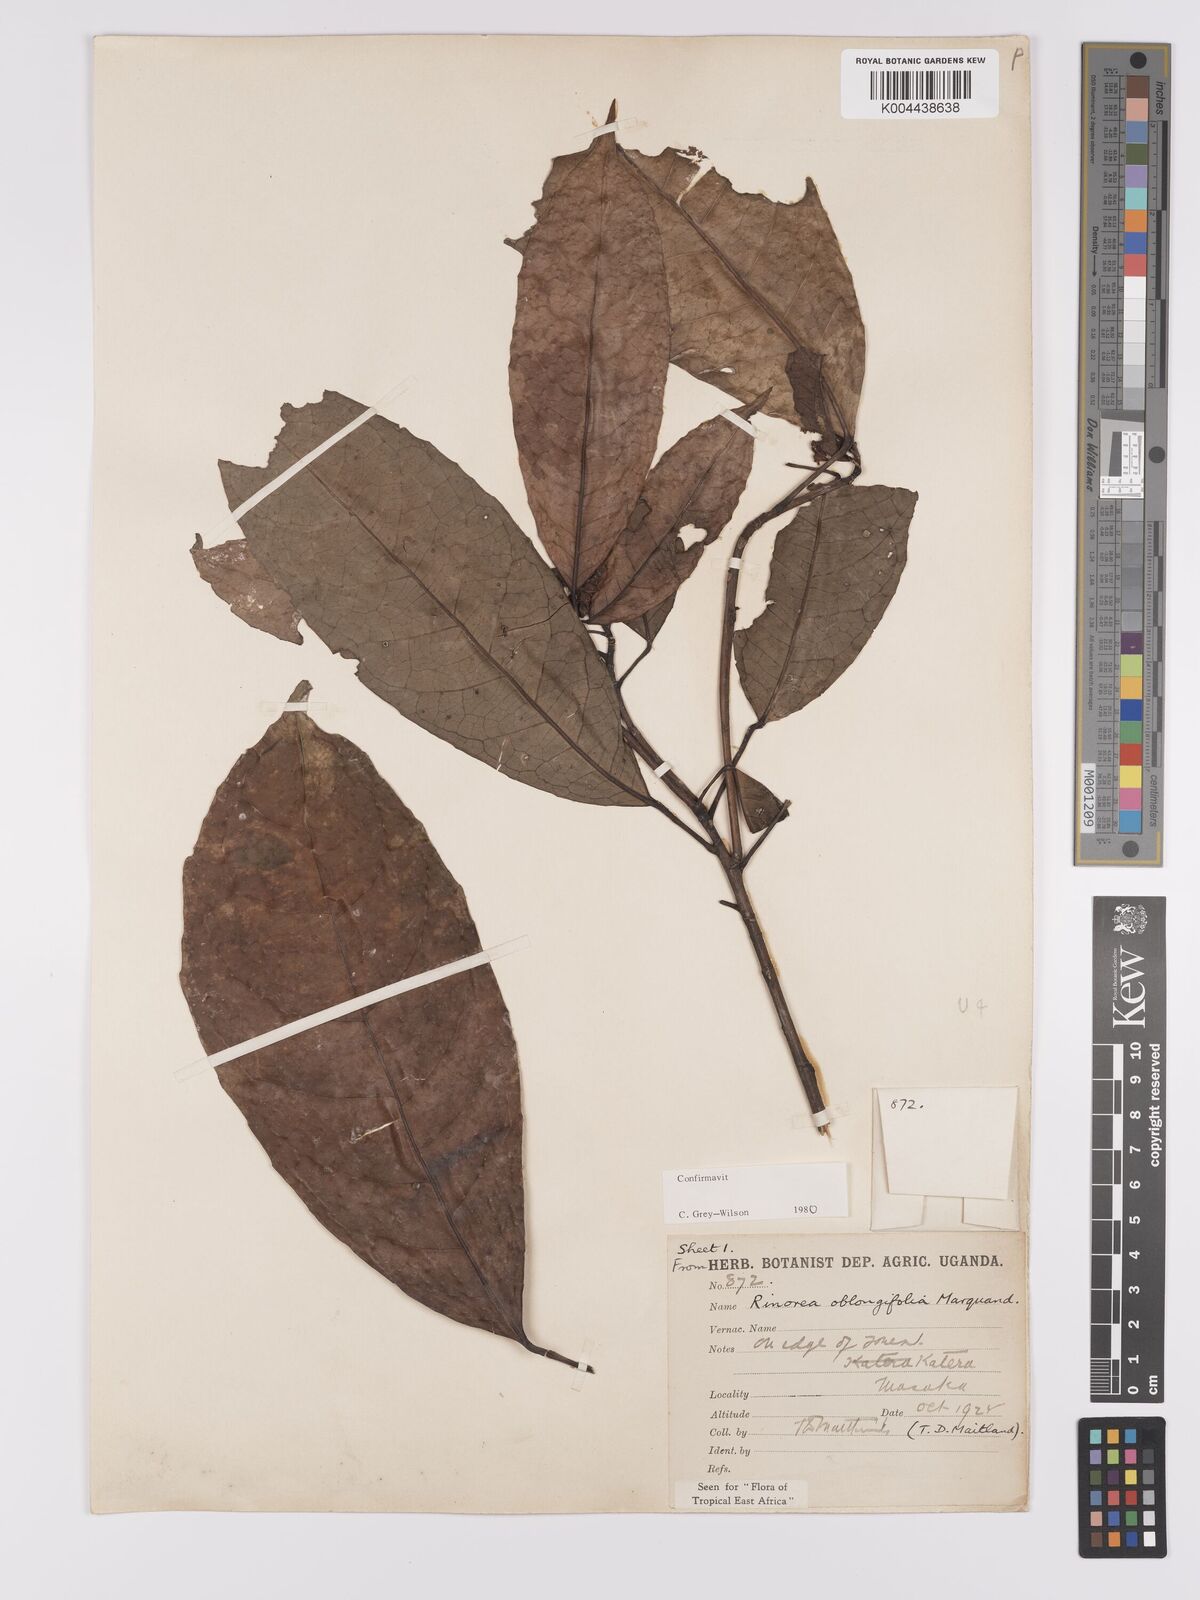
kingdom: Plantae
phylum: Tracheophyta
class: Magnoliopsida
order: Apiales
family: Pittosporaceae
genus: Marianthus
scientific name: Marianthus coeruleopunctatus
